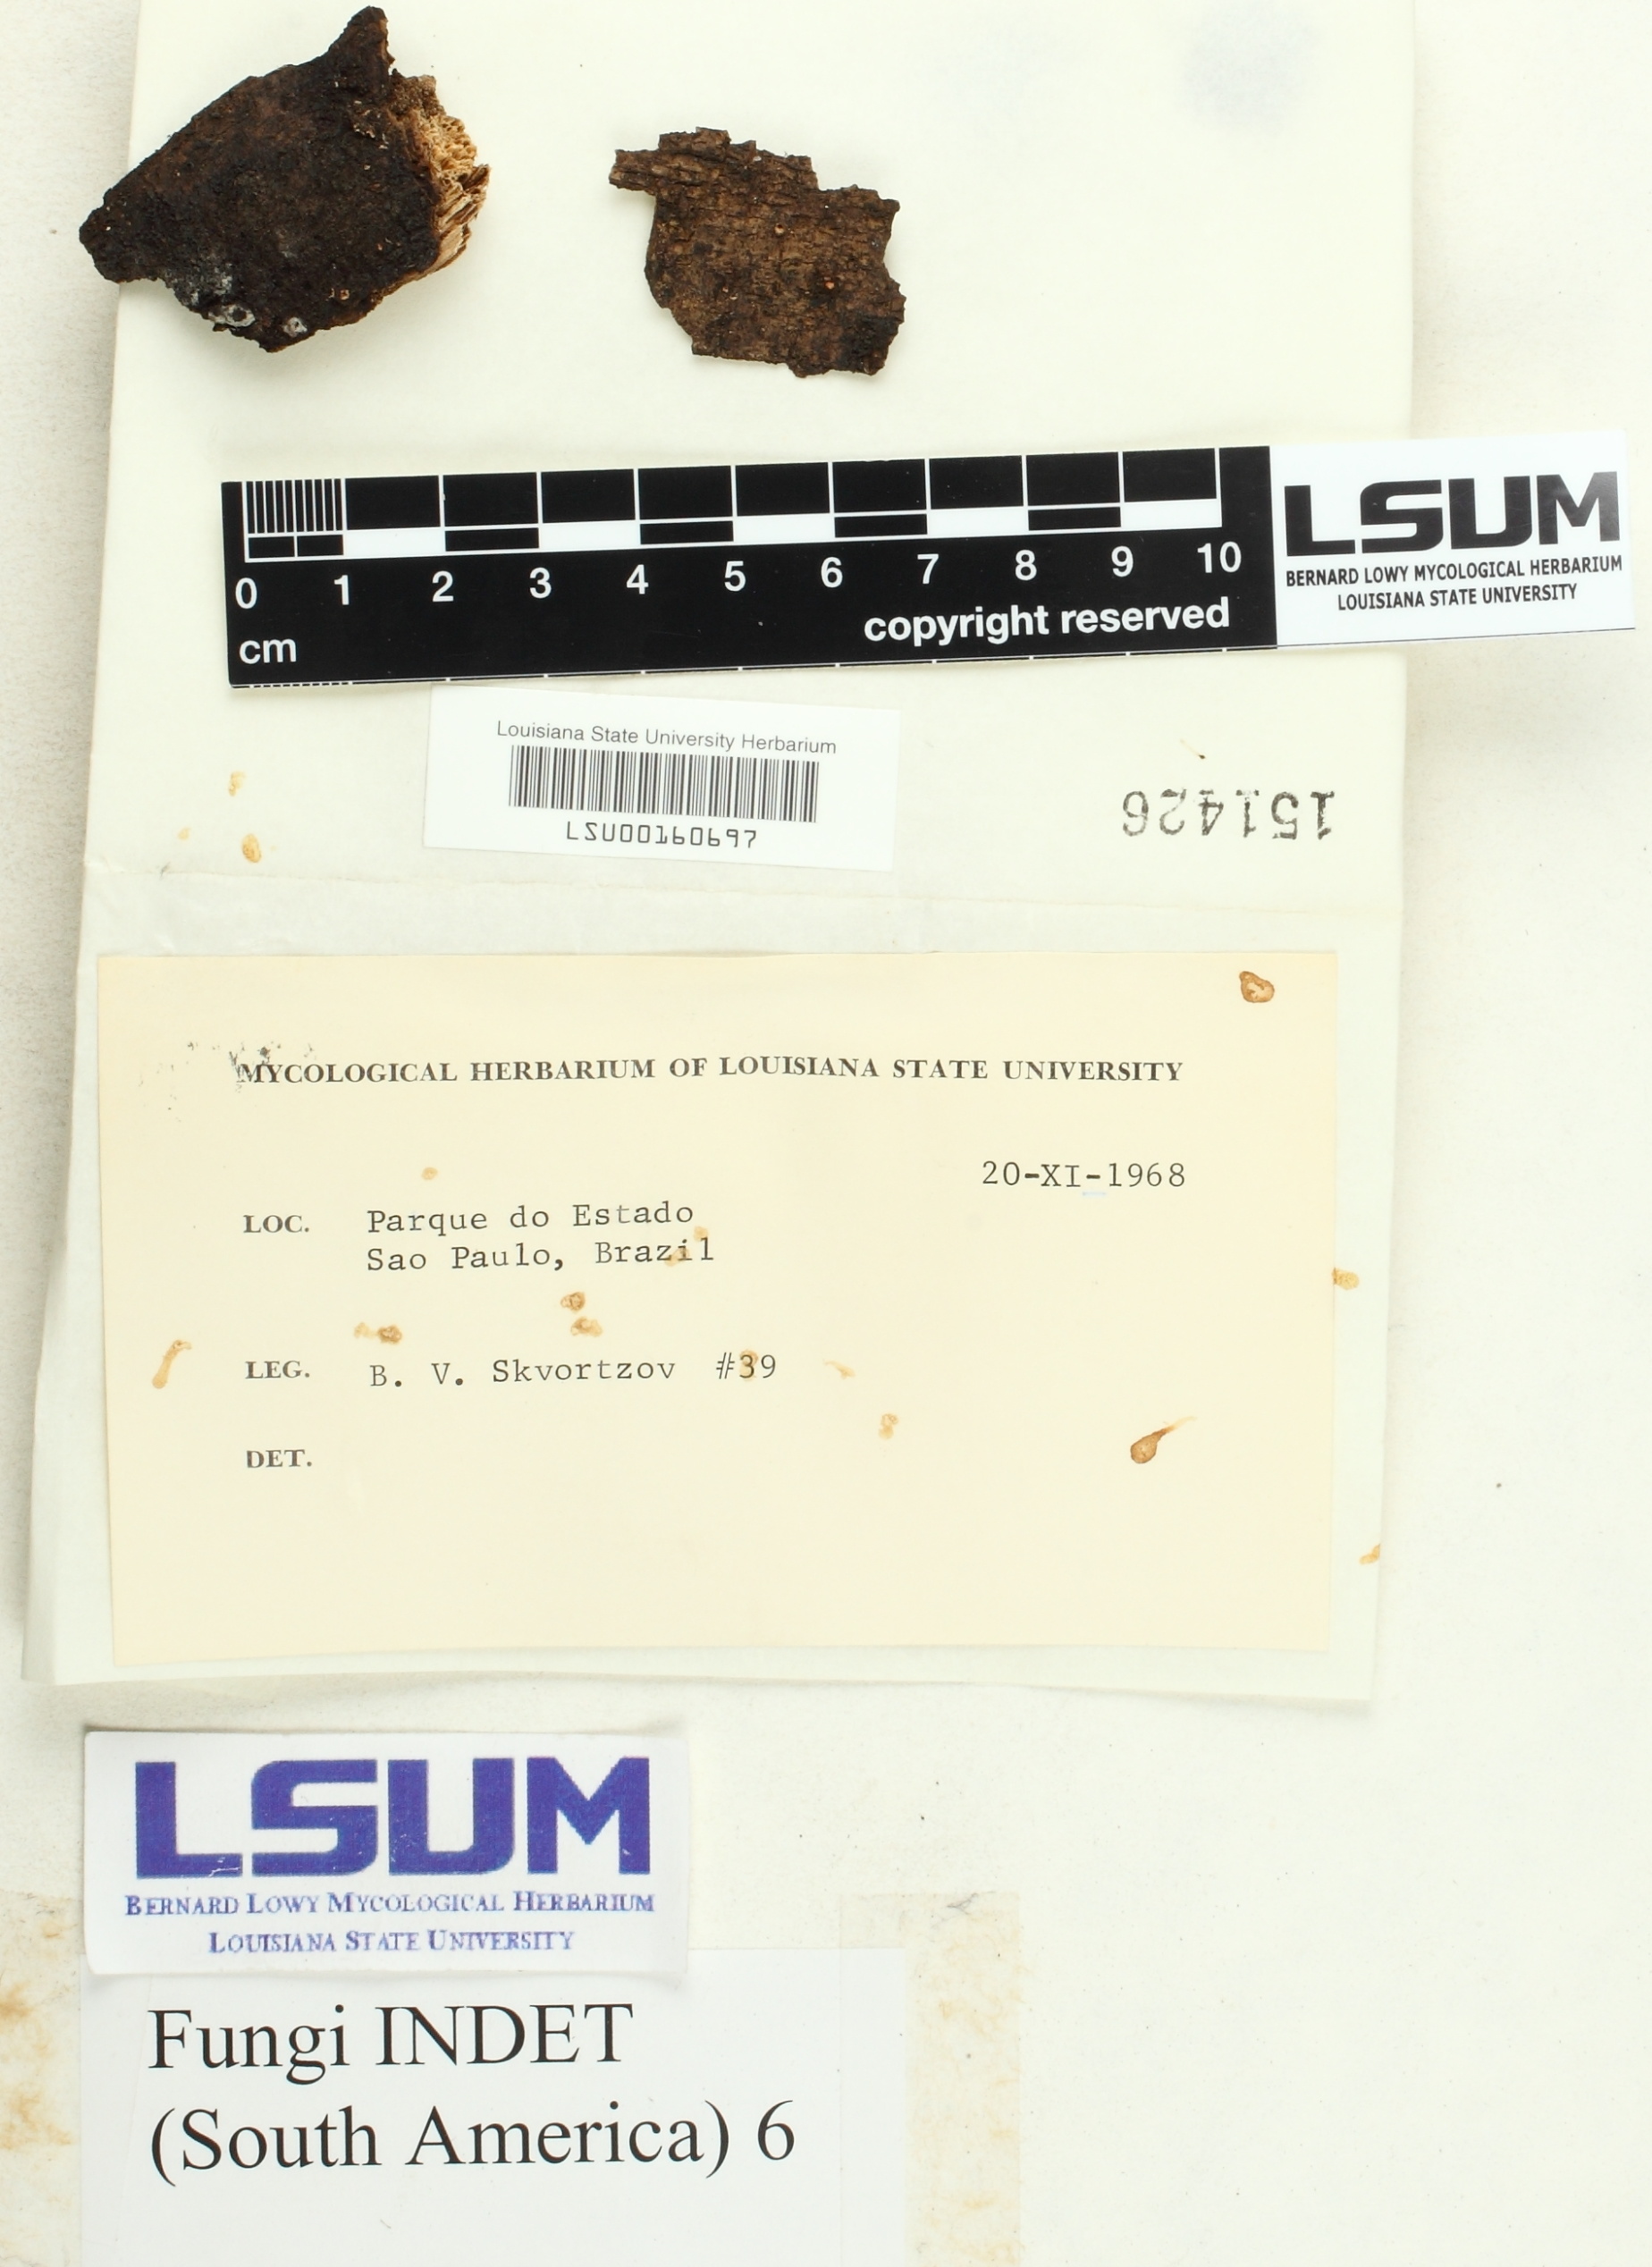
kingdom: Fungi
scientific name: Fungi
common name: Fungi
